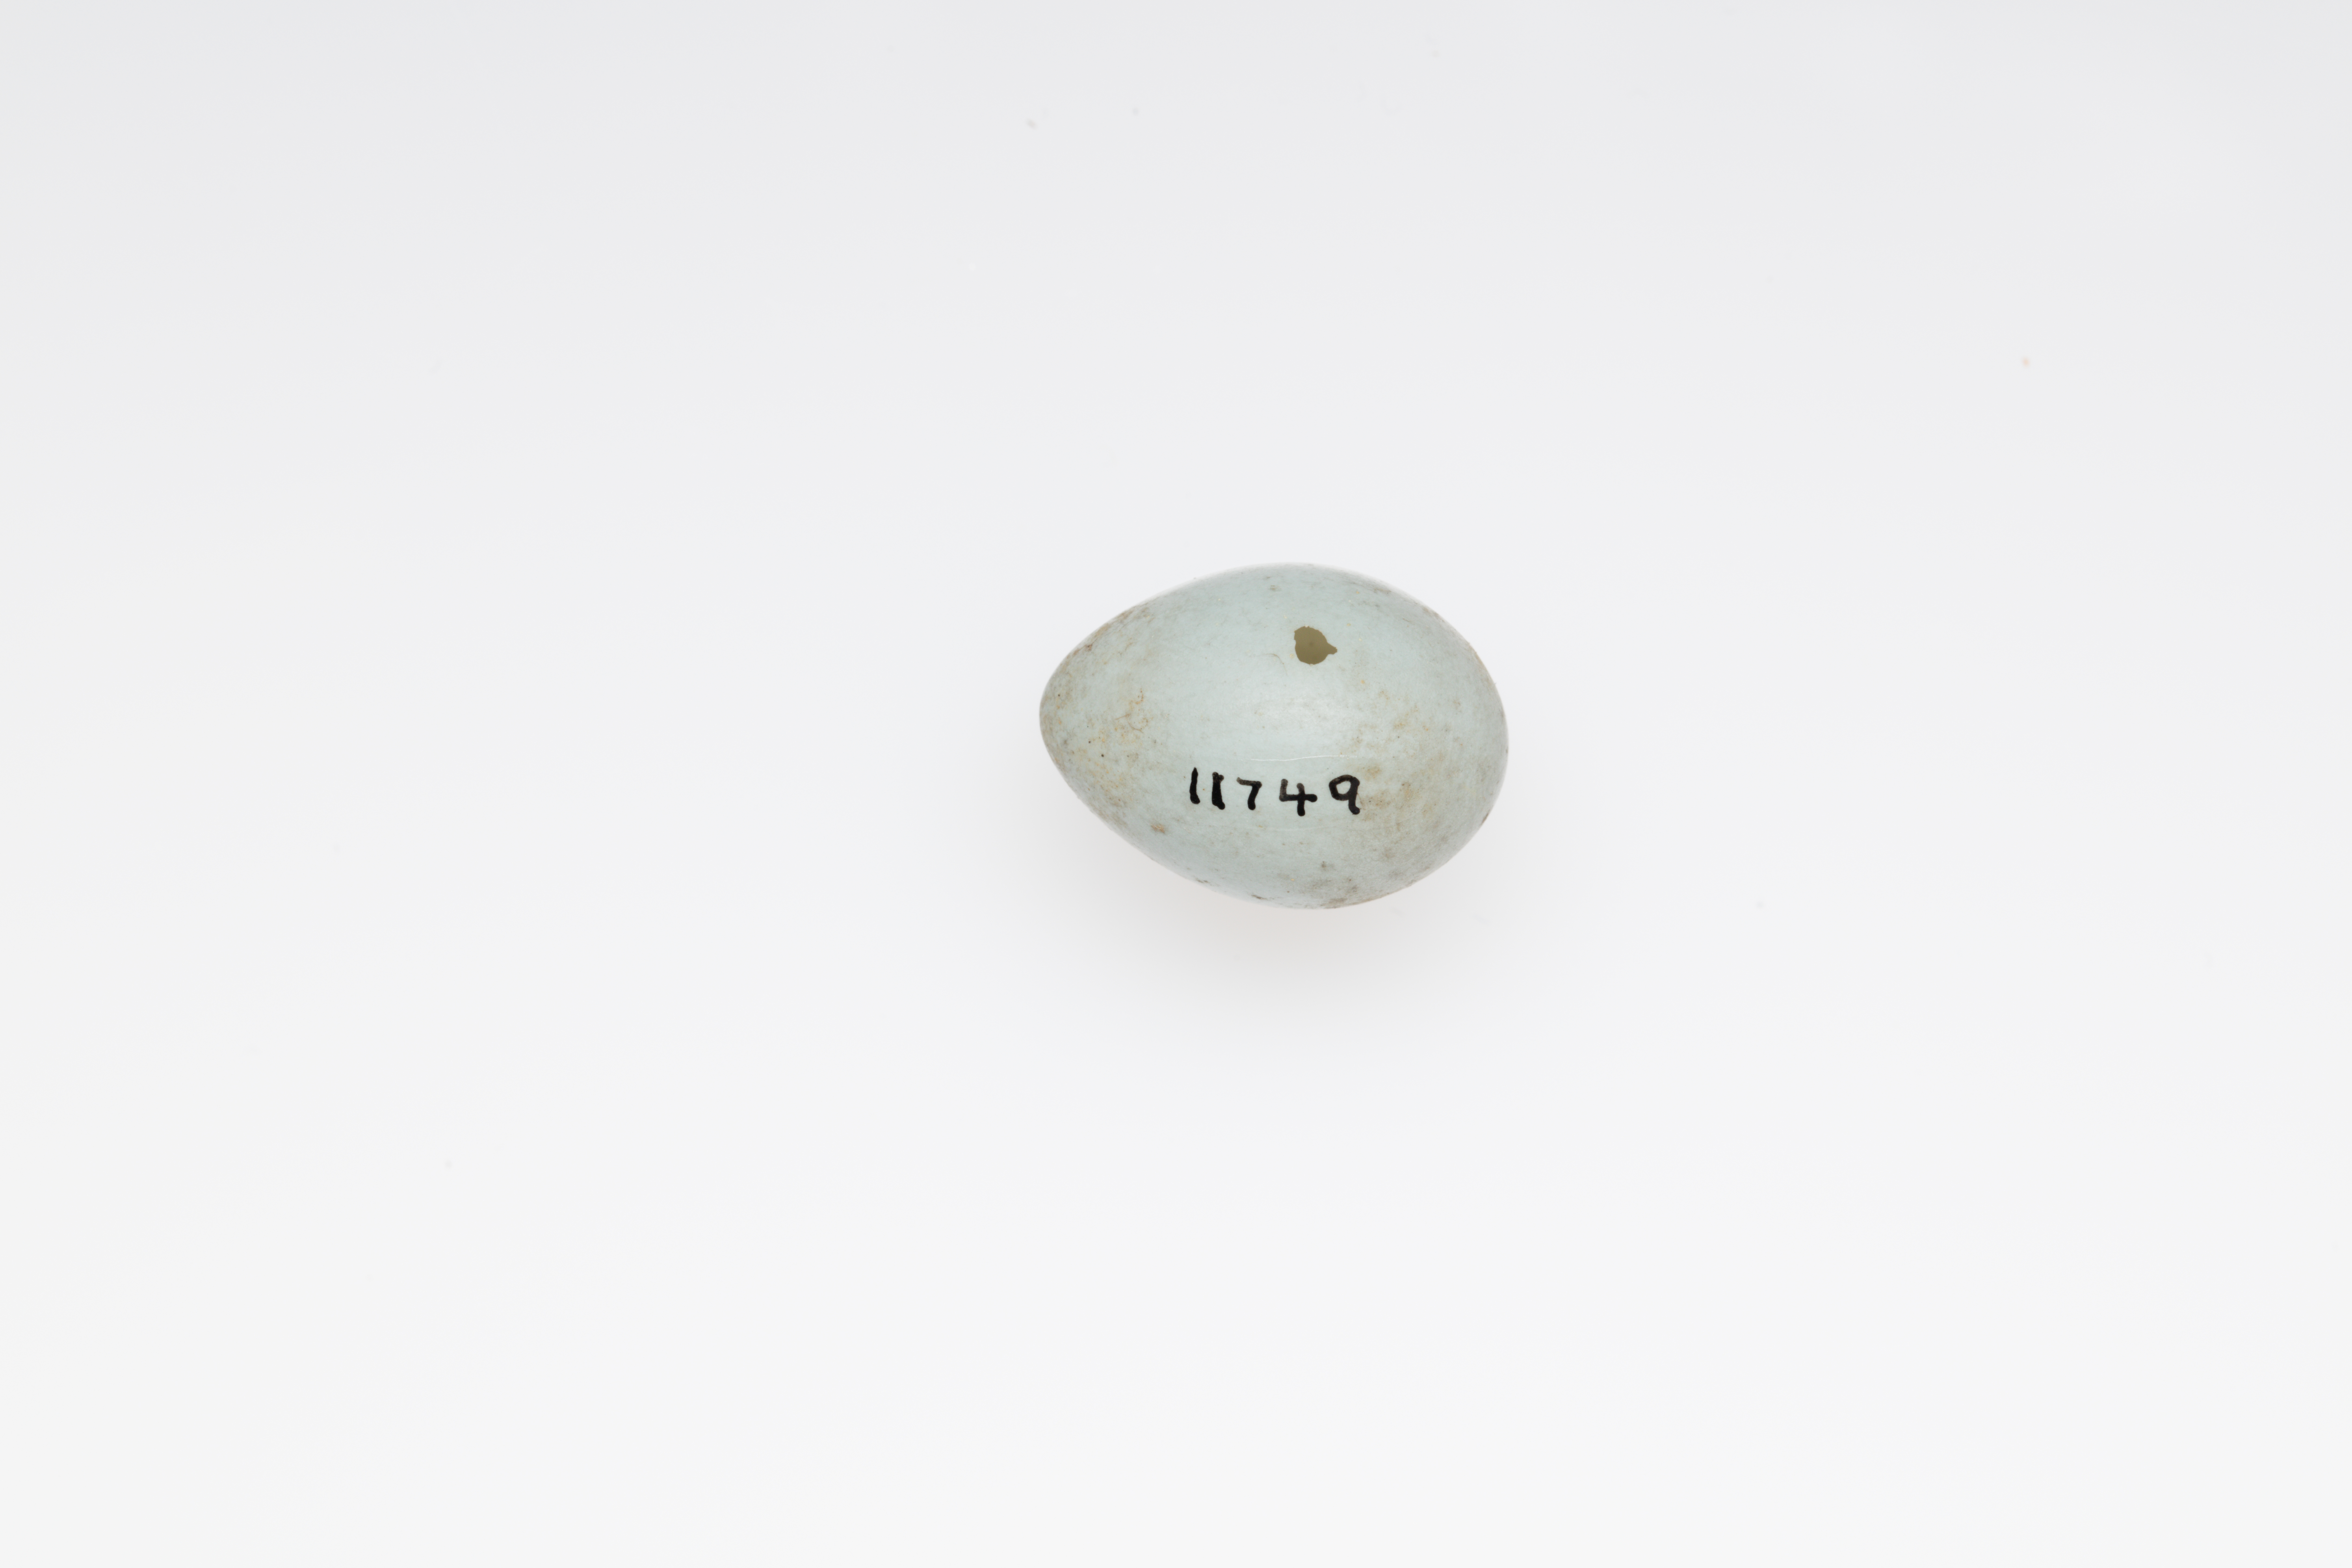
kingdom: Animalia
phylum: Chordata
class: Aves
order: Passeriformes
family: Prunellidae
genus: Prunella
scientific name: Prunella modularis
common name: Dunnock
